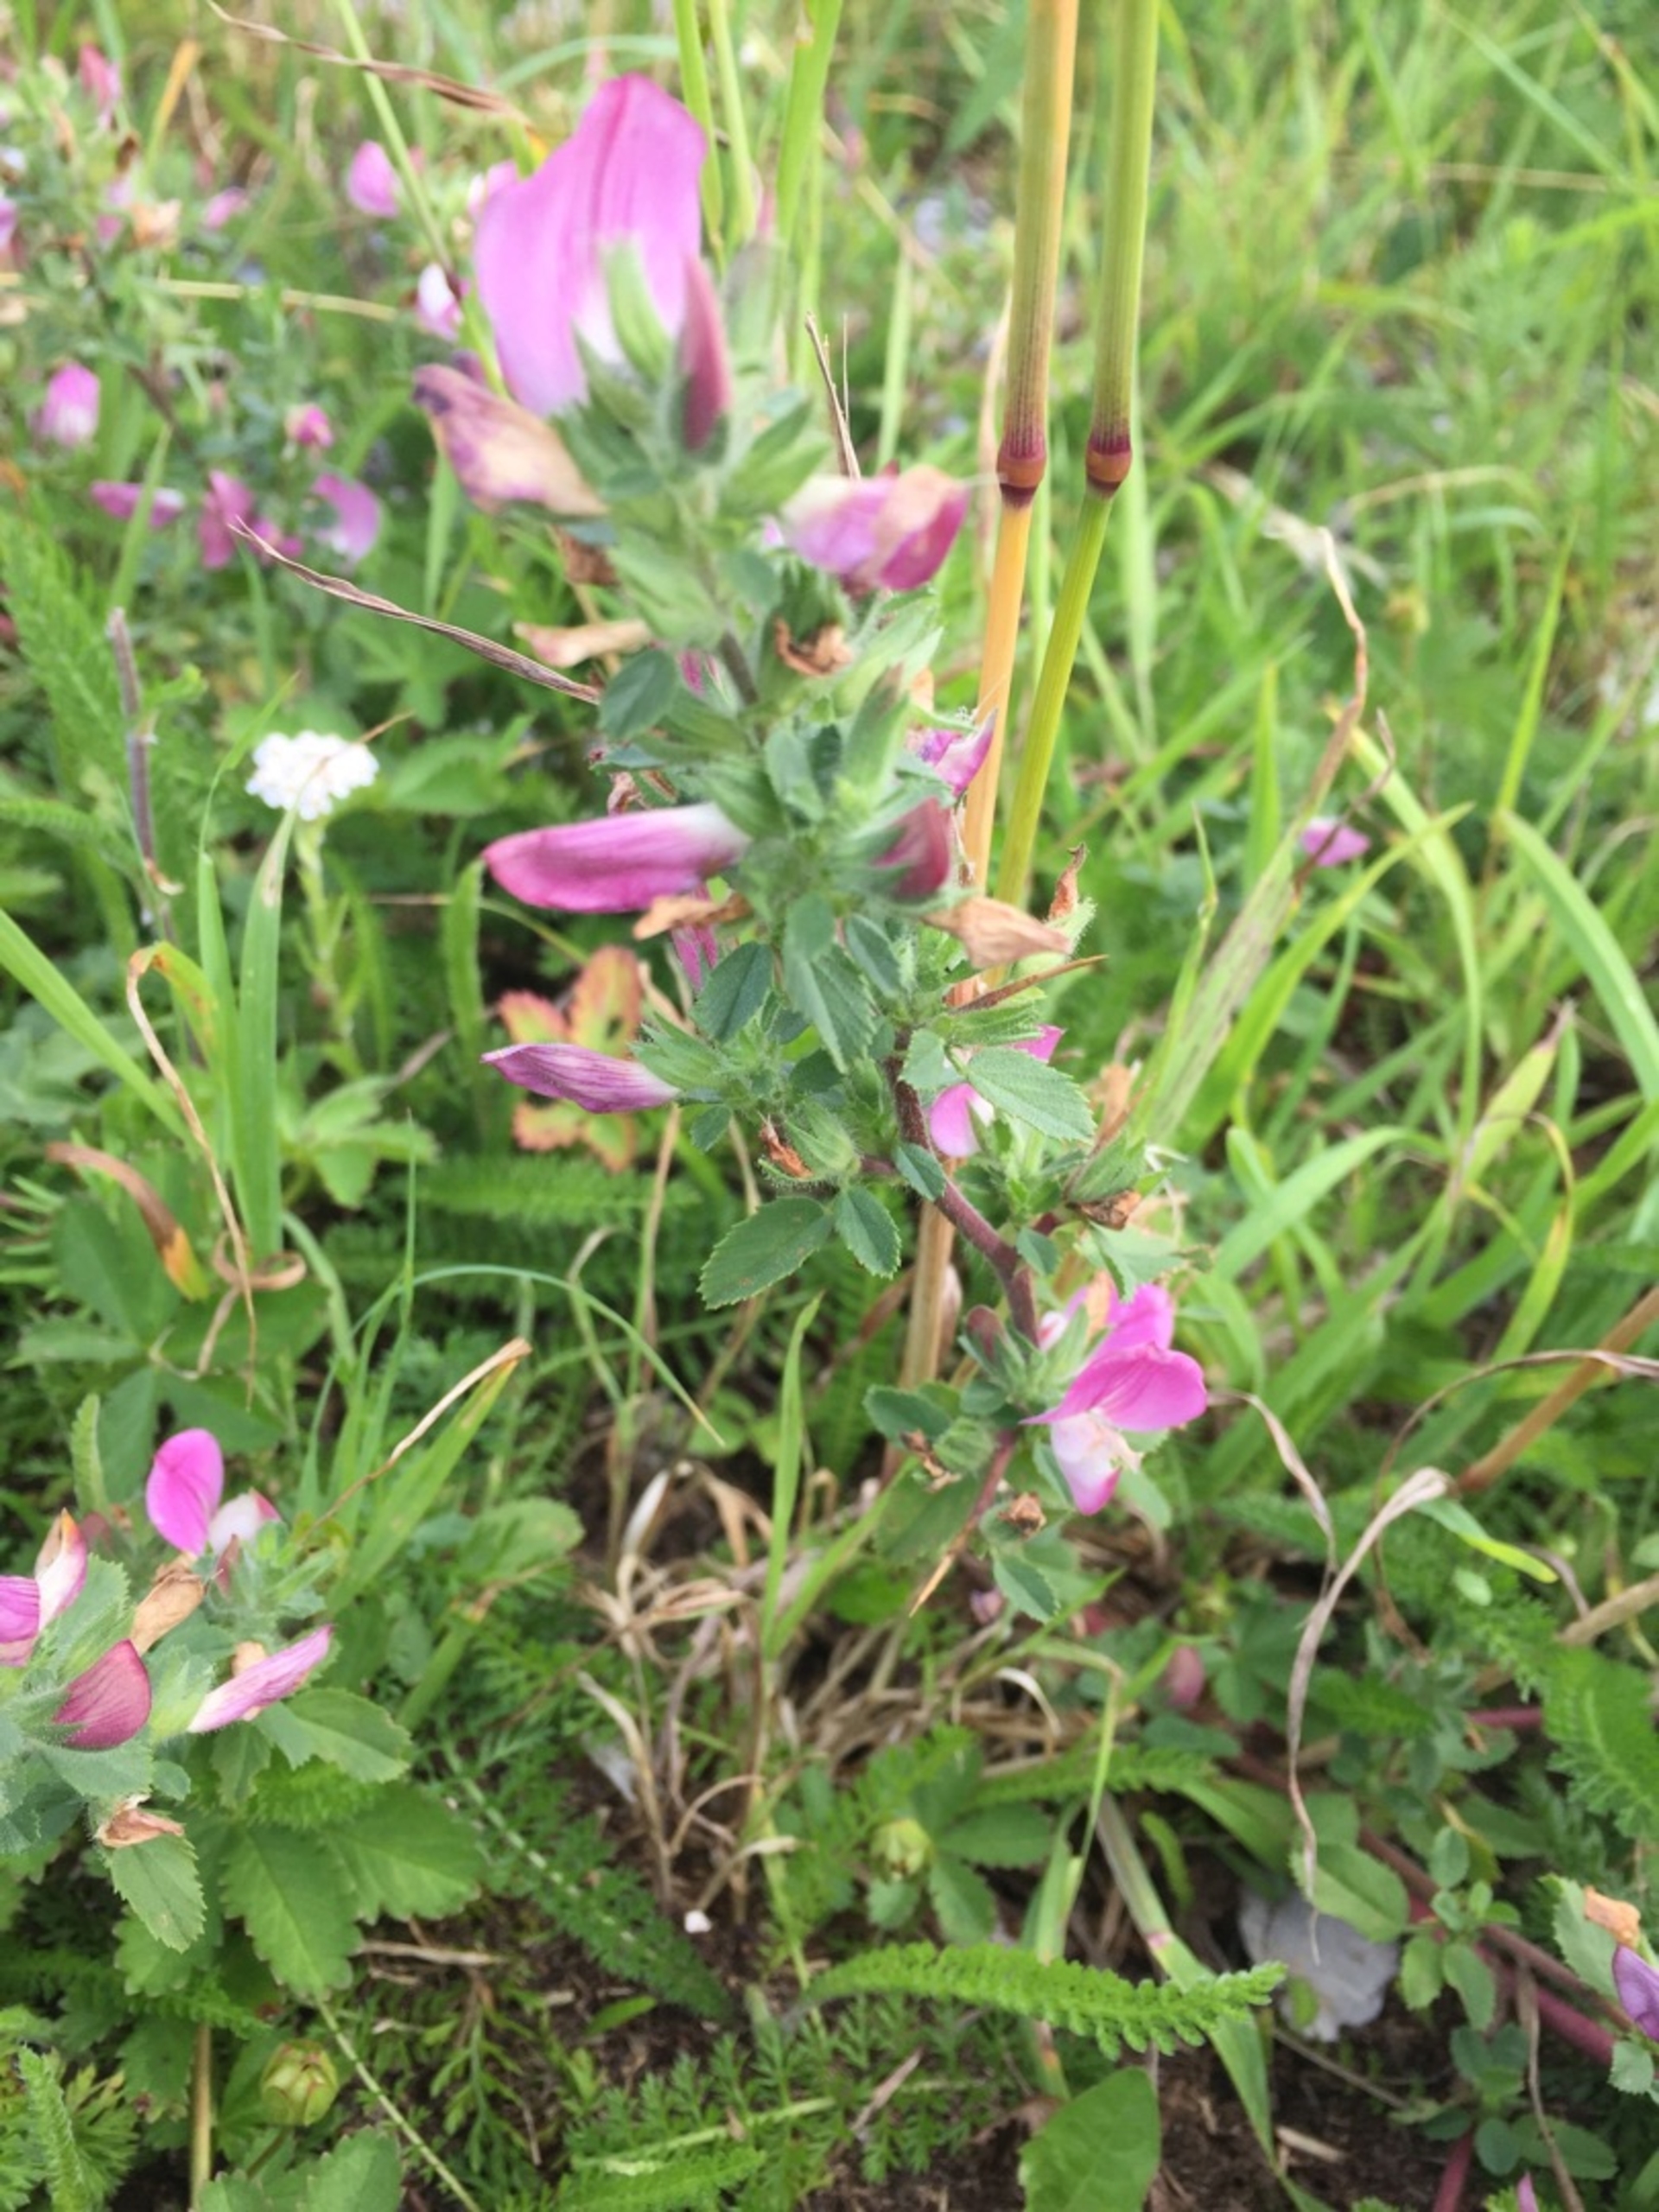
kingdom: Plantae
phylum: Tracheophyta
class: Magnoliopsida
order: Fabales
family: Fabaceae
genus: Ononis
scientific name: Ononis spinosa
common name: Krageklo
